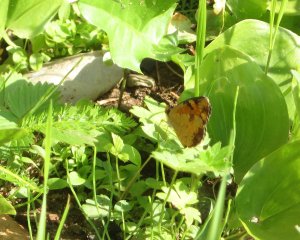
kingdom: Animalia
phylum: Arthropoda
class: Insecta
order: Lepidoptera
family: Nymphalidae
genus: Phyciodes
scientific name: Phyciodes tharos
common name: Northern Crescent
